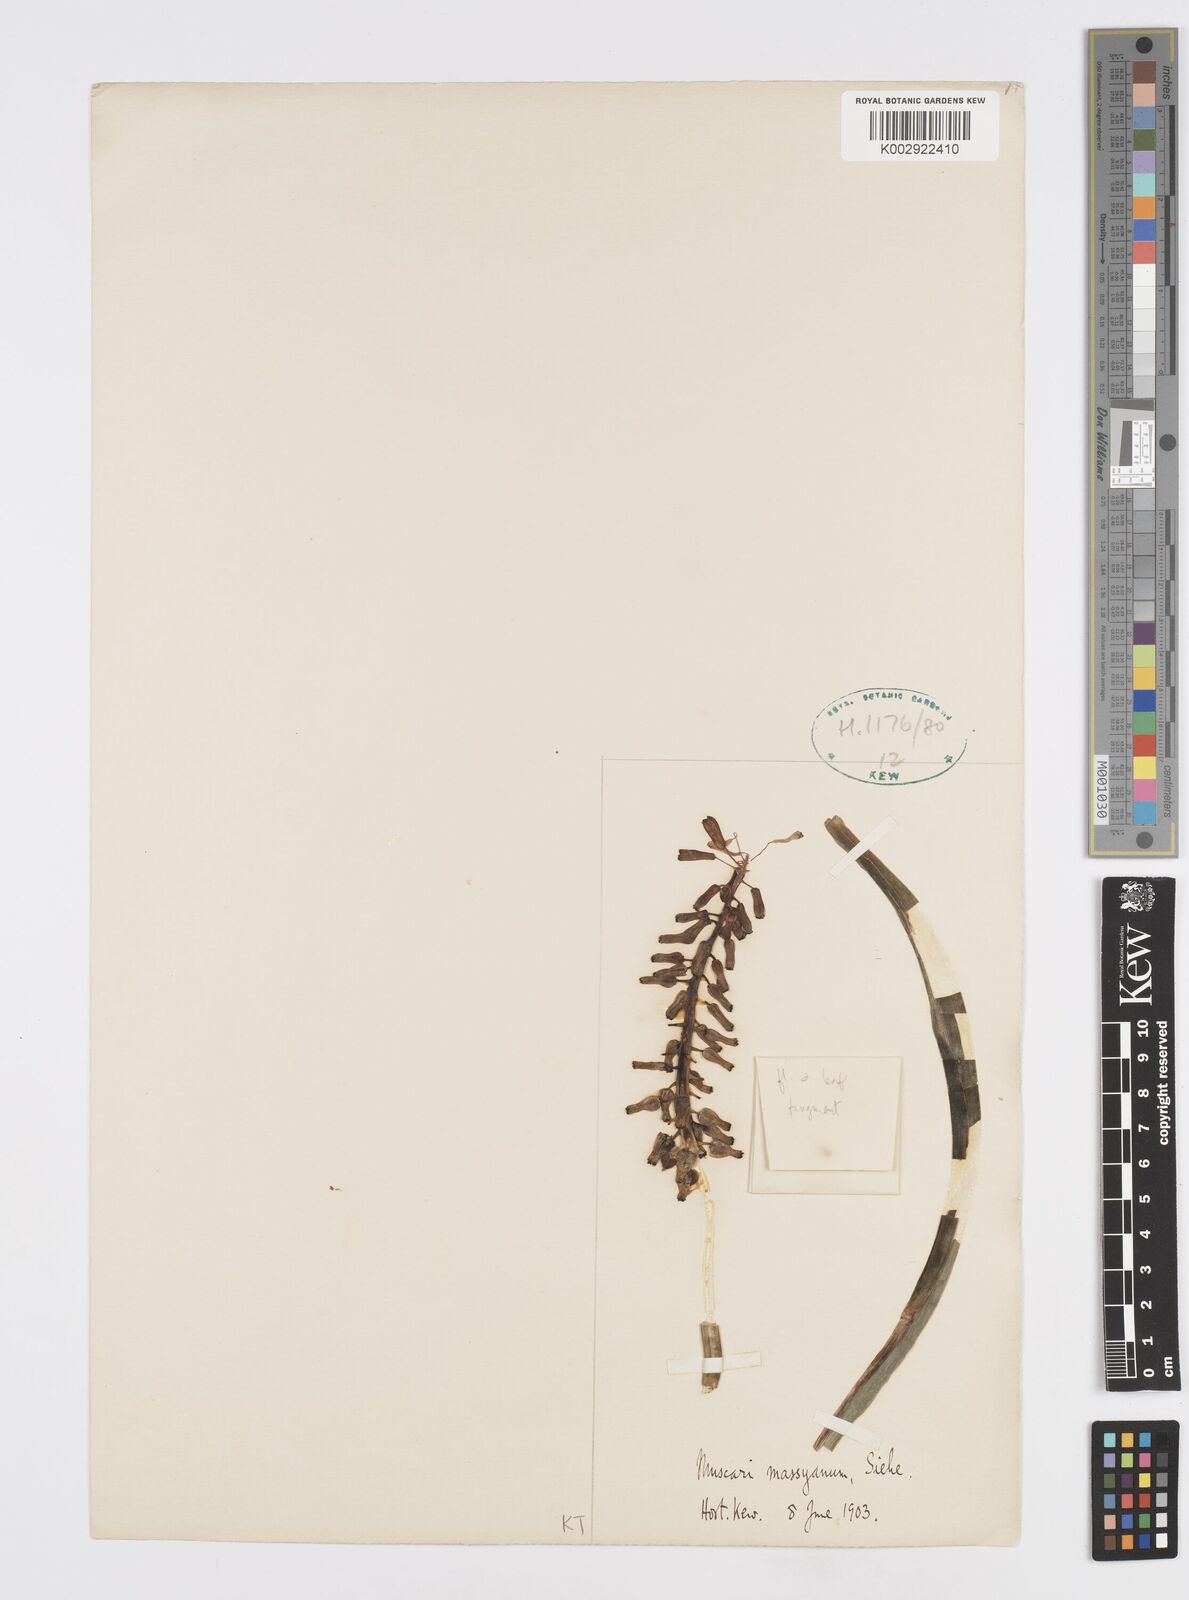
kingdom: Animalia
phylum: Mollusca
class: Cephalopoda
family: Neocomitidae
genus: Leopoldia
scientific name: Leopoldia
